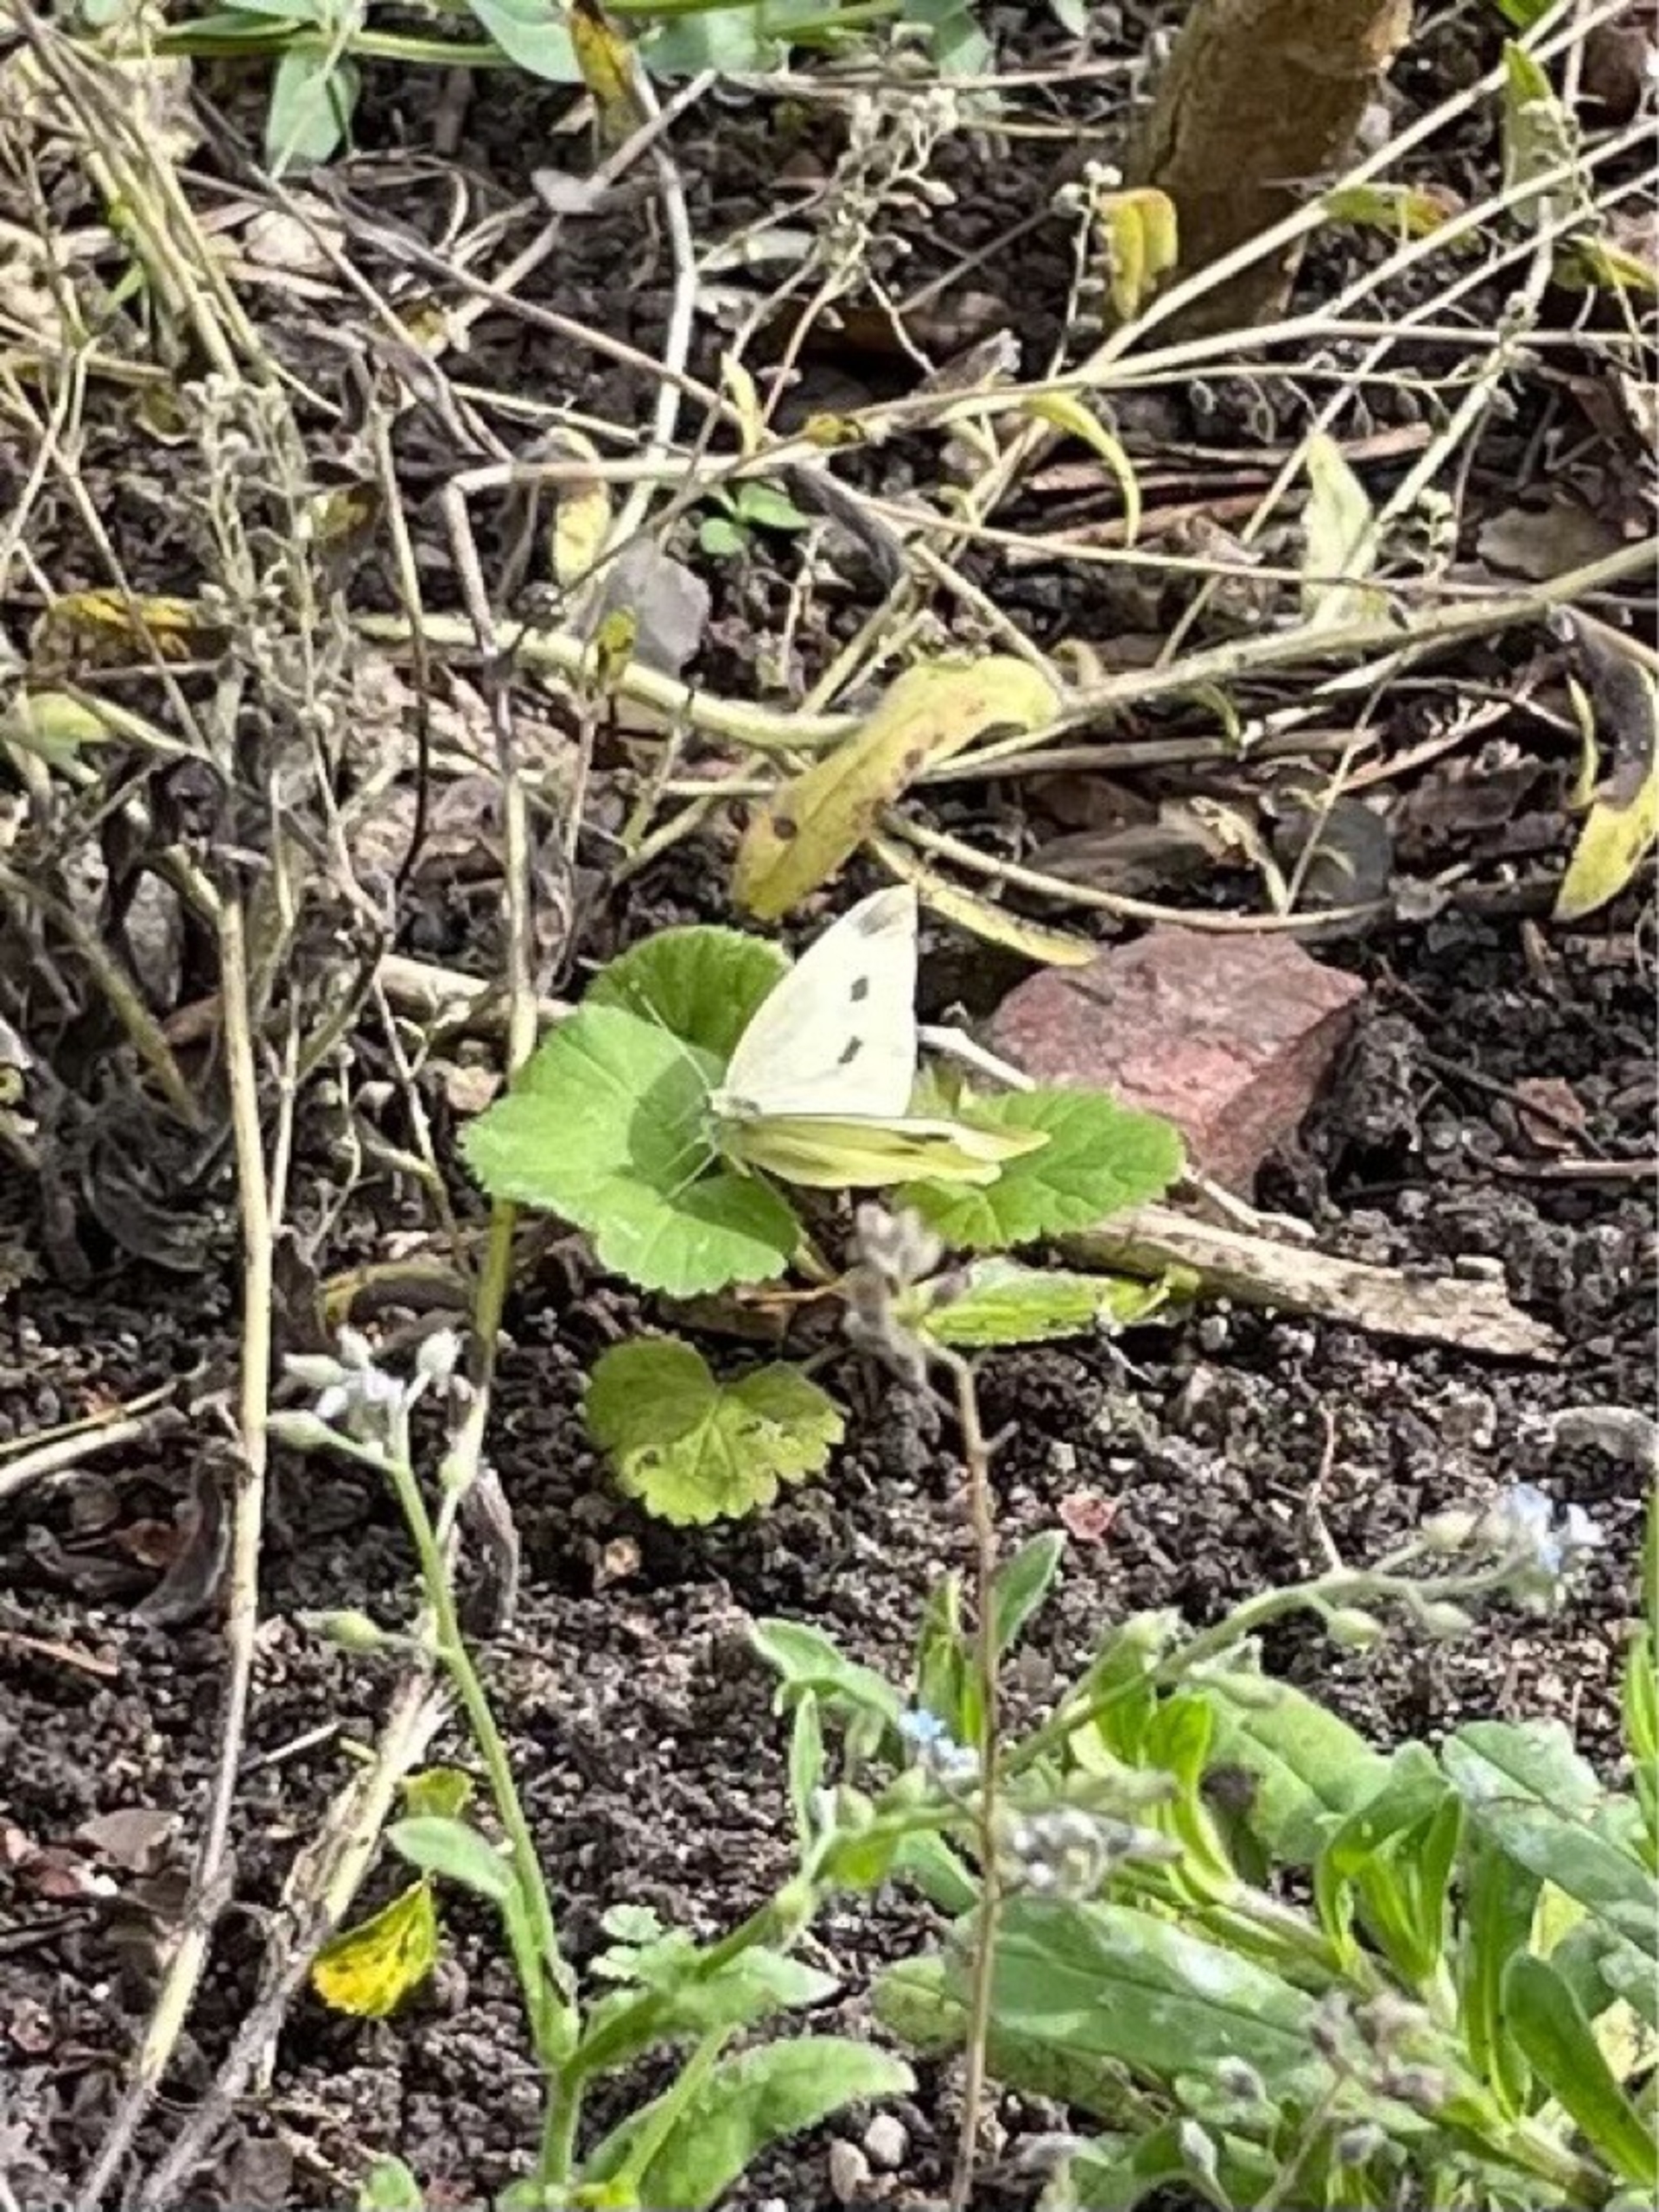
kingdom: Animalia
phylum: Arthropoda
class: Insecta
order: Lepidoptera
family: Pieridae
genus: Pieris
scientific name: Pieris rapae
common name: Lille kålsommerfugl
